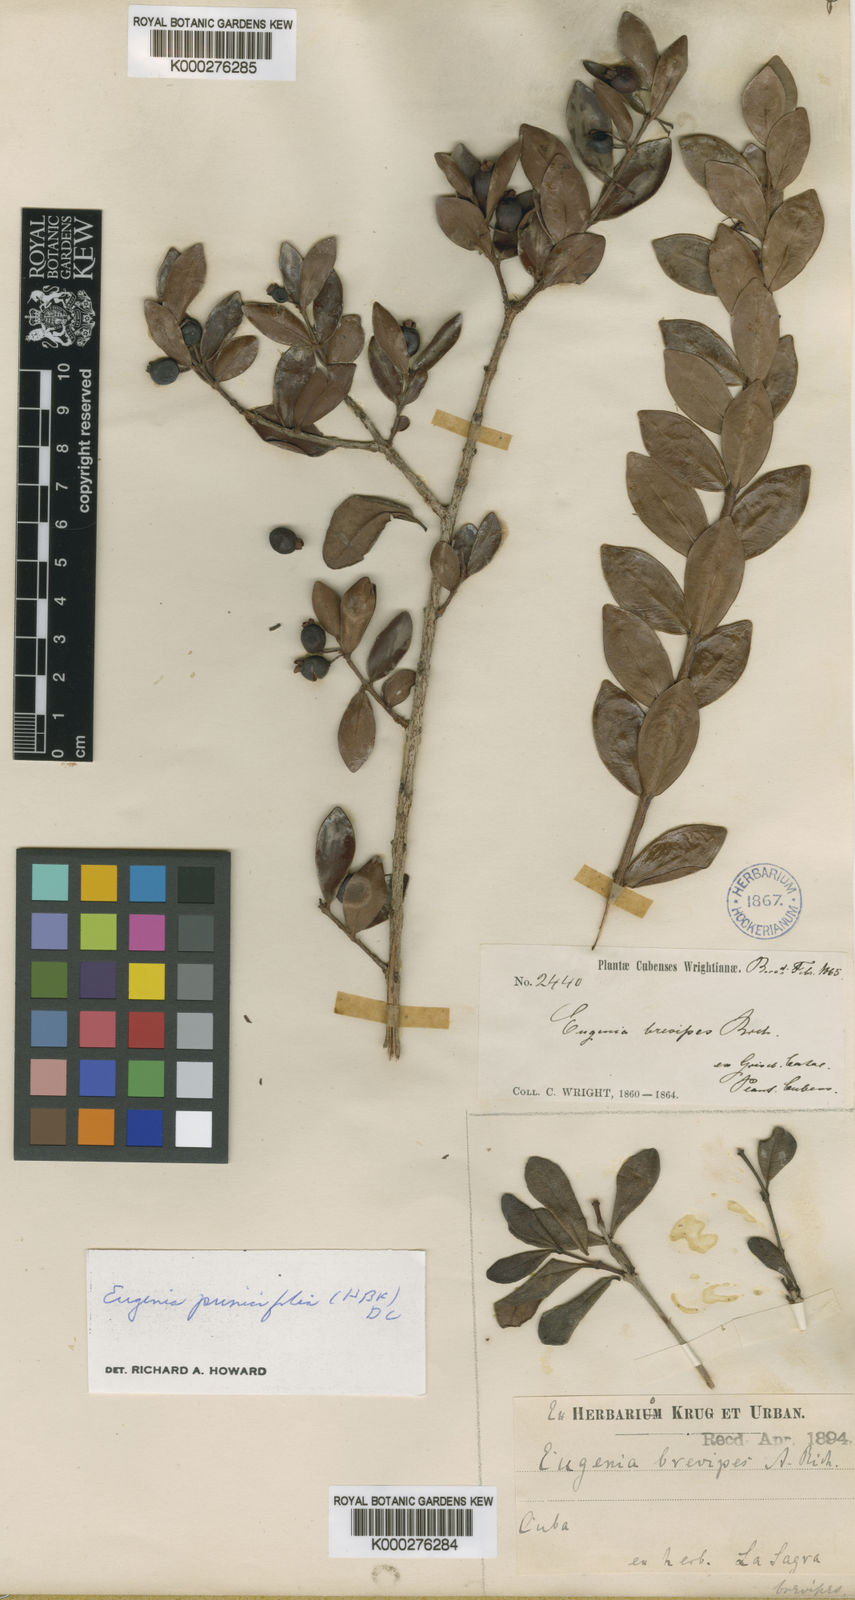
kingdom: Plantae
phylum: Tracheophyta
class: Magnoliopsida
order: Myrtales
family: Myrtaceae
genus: Eugenia
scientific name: Eugenia brevipes
